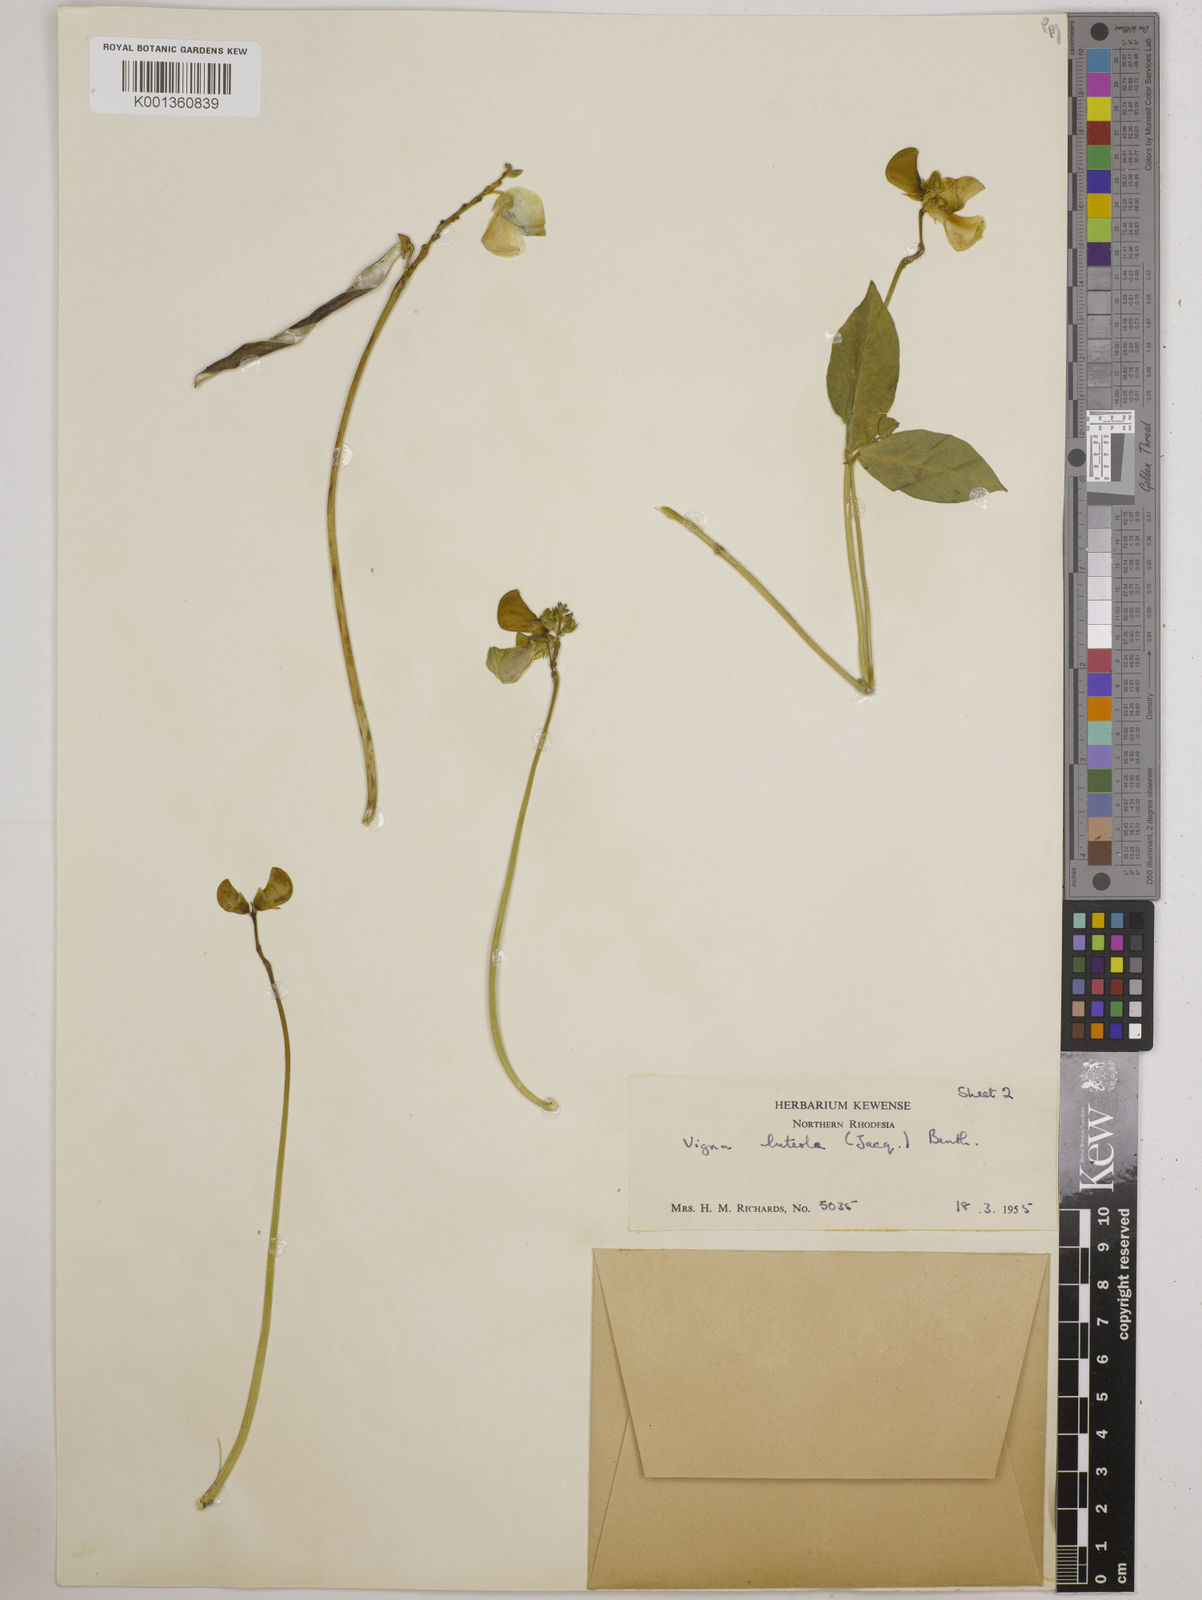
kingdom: Plantae
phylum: Tracheophyta
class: Magnoliopsida
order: Fabales
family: Fabaceae
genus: Vigna
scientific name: Vigna luteola
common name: Hairypod cowpea
